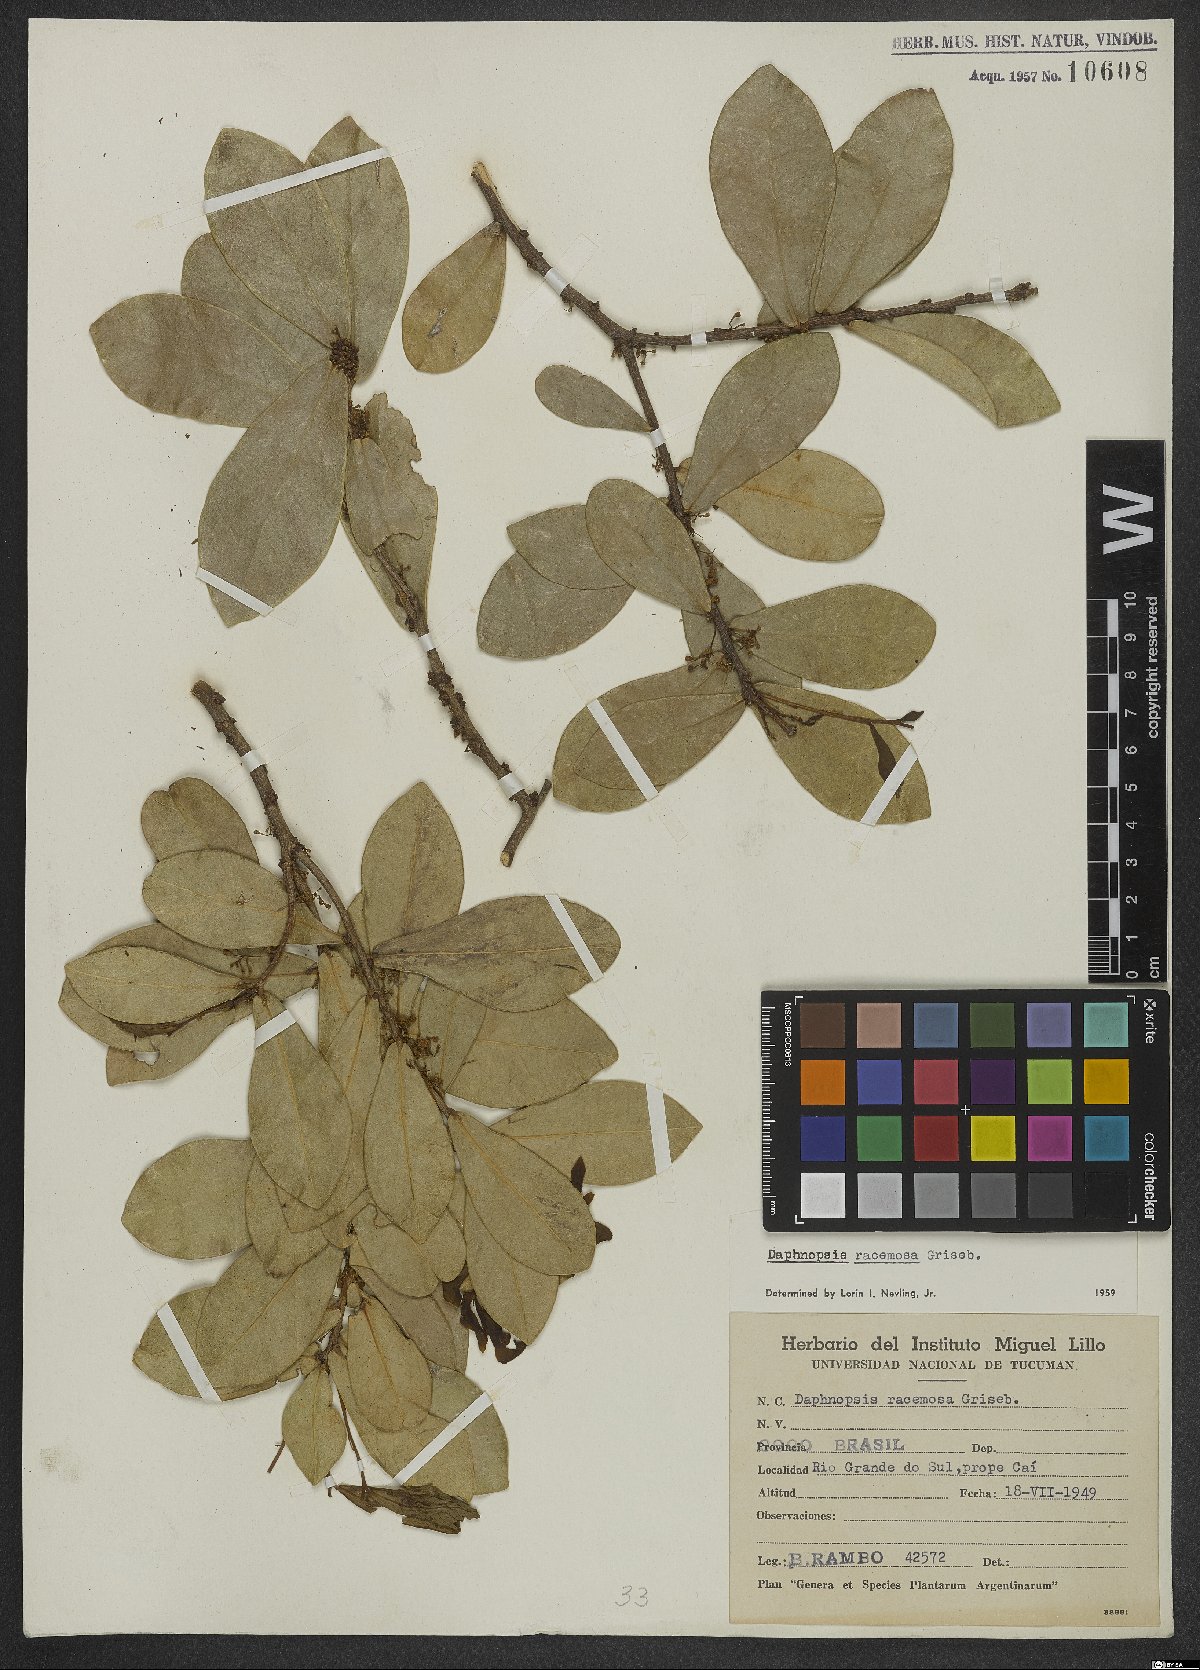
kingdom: Plantae
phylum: Tracheophyta
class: Magnoliopsida
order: Malvales
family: Thymelaeaceae
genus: Daphnopsis
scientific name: Daphnopsis racemosa
